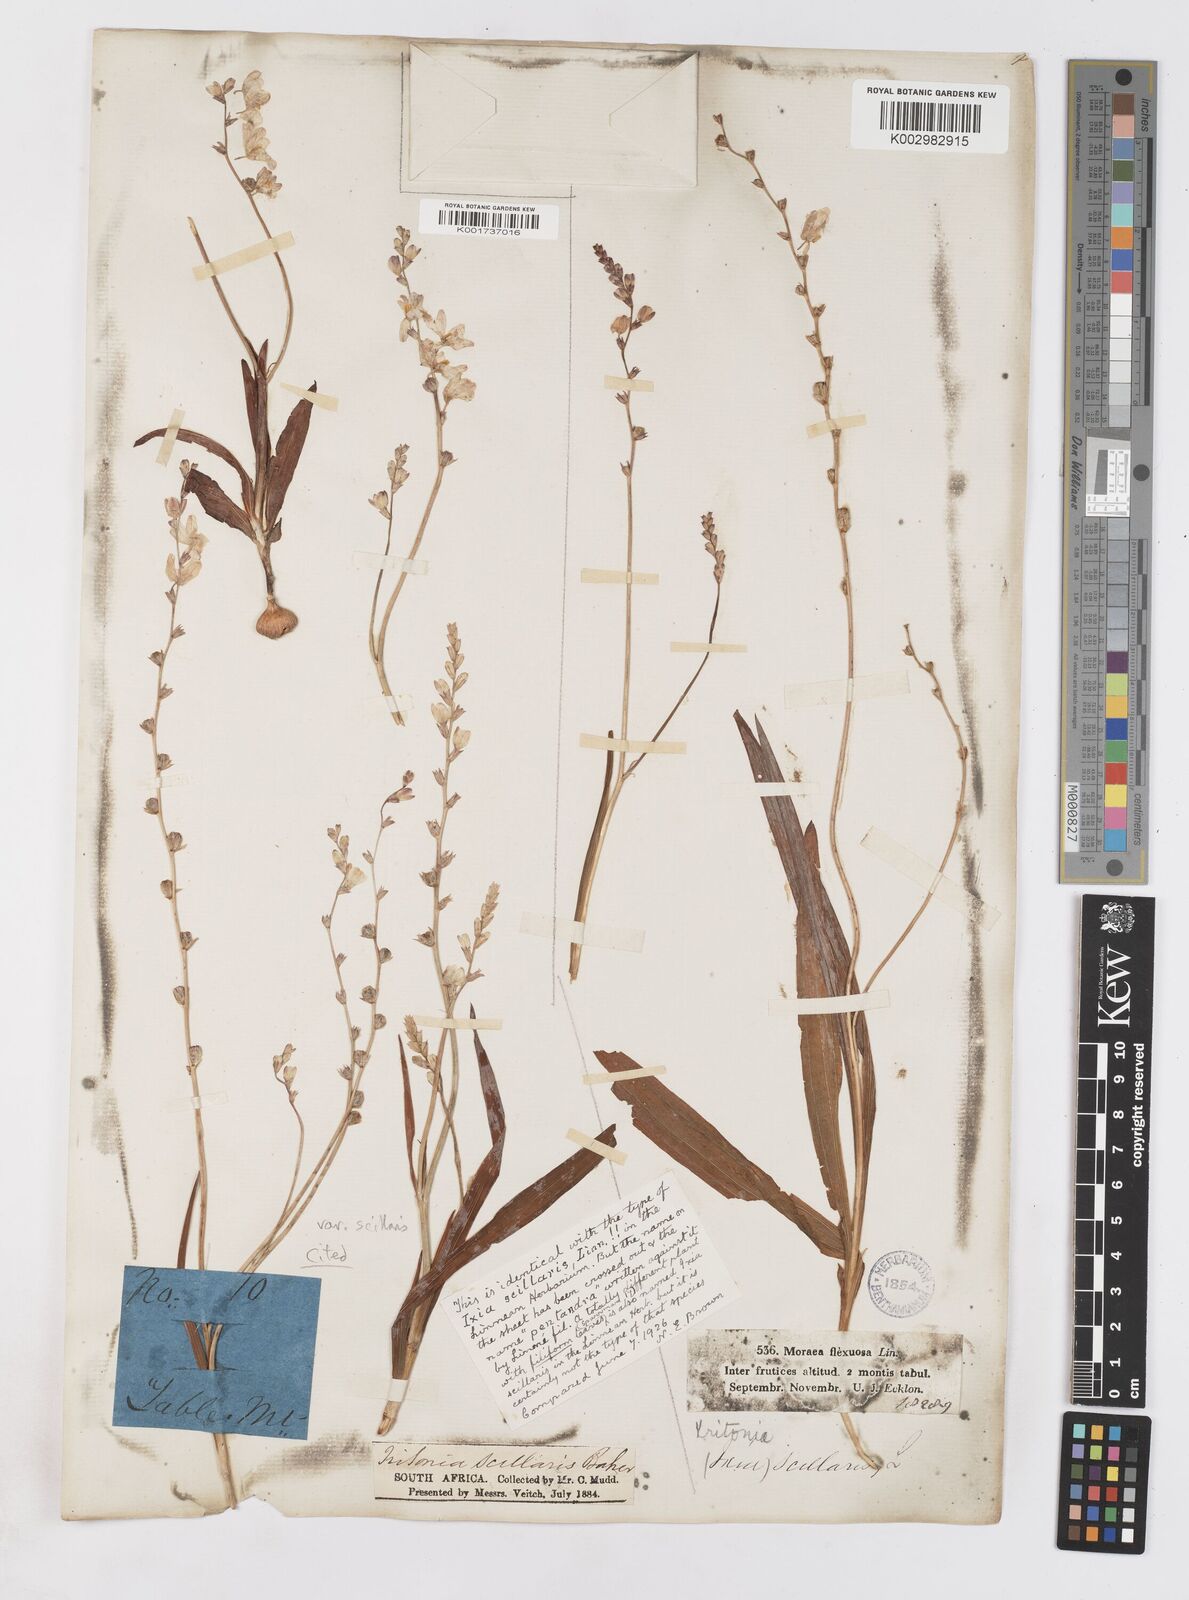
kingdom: Plantae
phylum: Tracheophyta
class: Liliopsida
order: Asparagales
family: Iridaceae
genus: Ixia
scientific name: Ixia scillaris
